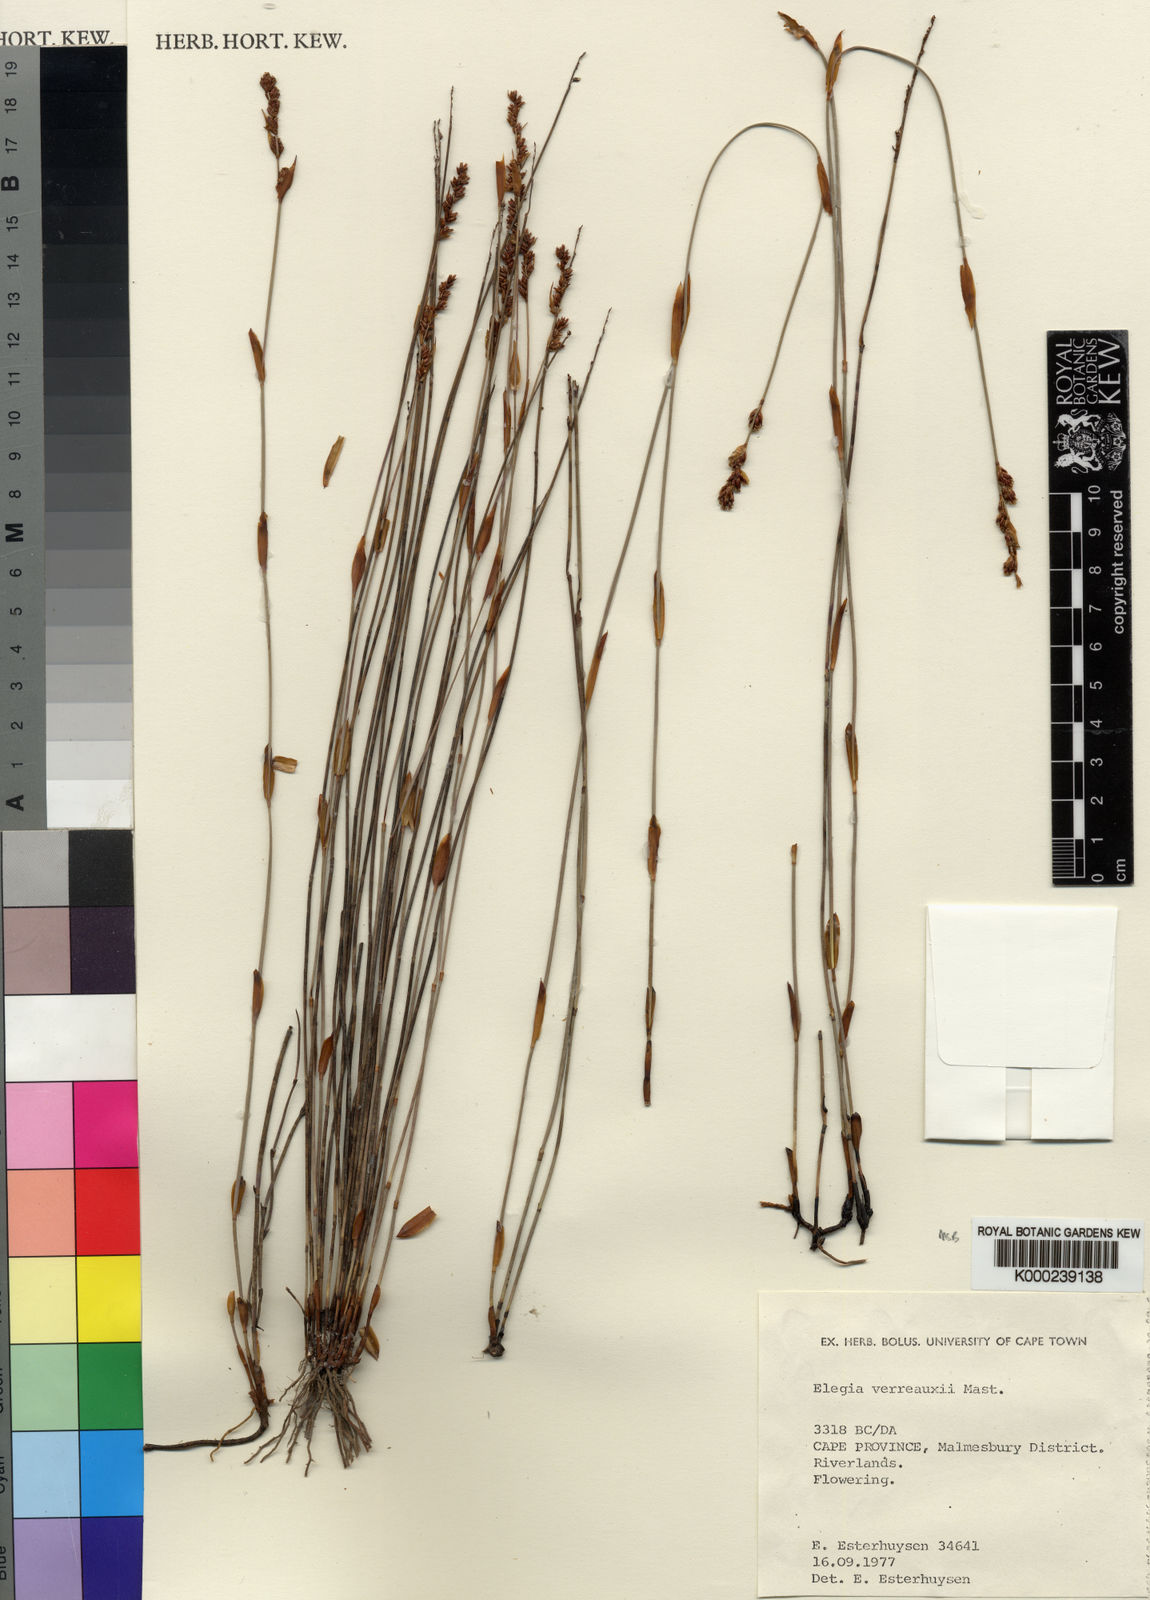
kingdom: Plantae
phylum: Tracheophyta
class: Liliopsida
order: Poales
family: Restionaceae
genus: Elegia
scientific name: Elegia verreauxii
